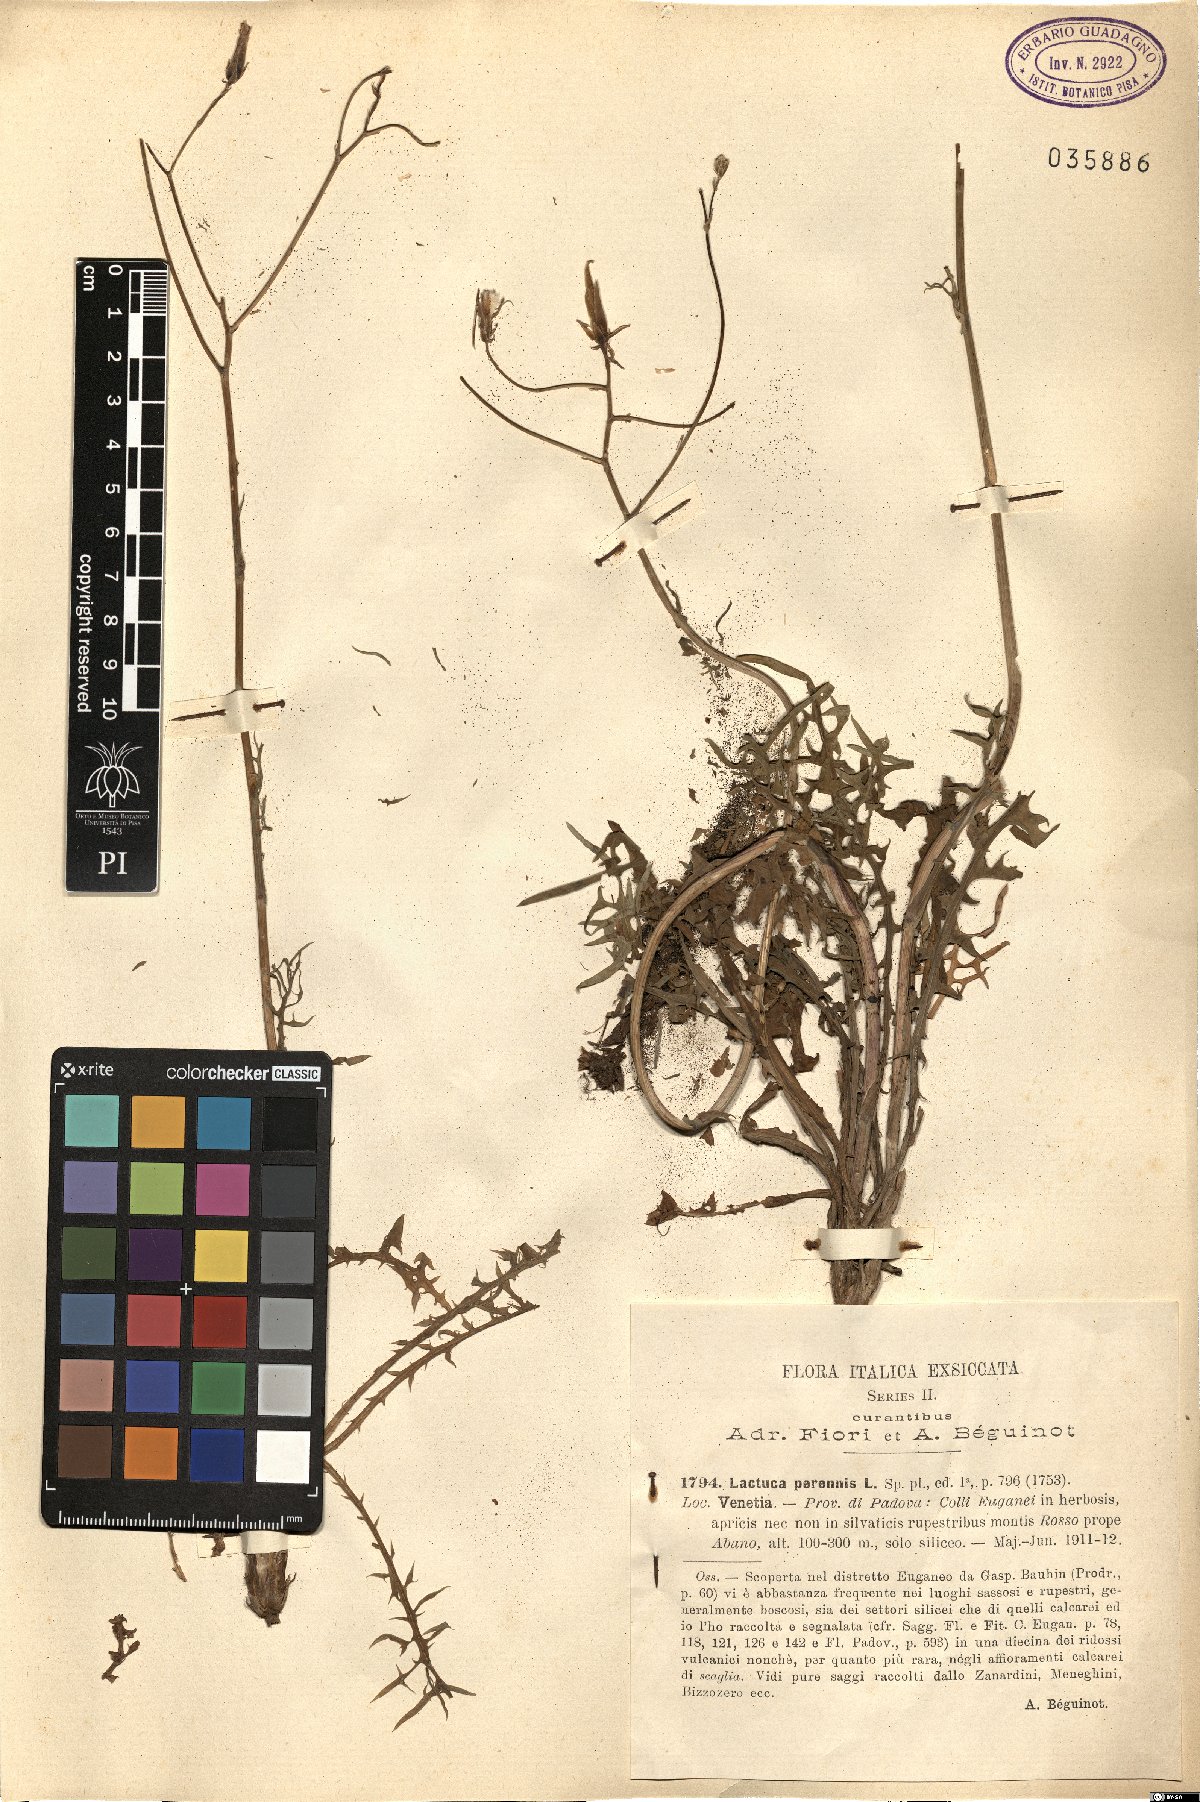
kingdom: Plantae
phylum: Tracheophyta
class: Magnoliopsida
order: Asterales
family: Asteraceae
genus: Lactuca
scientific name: Lactuca perennis
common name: Mountain lettuce
